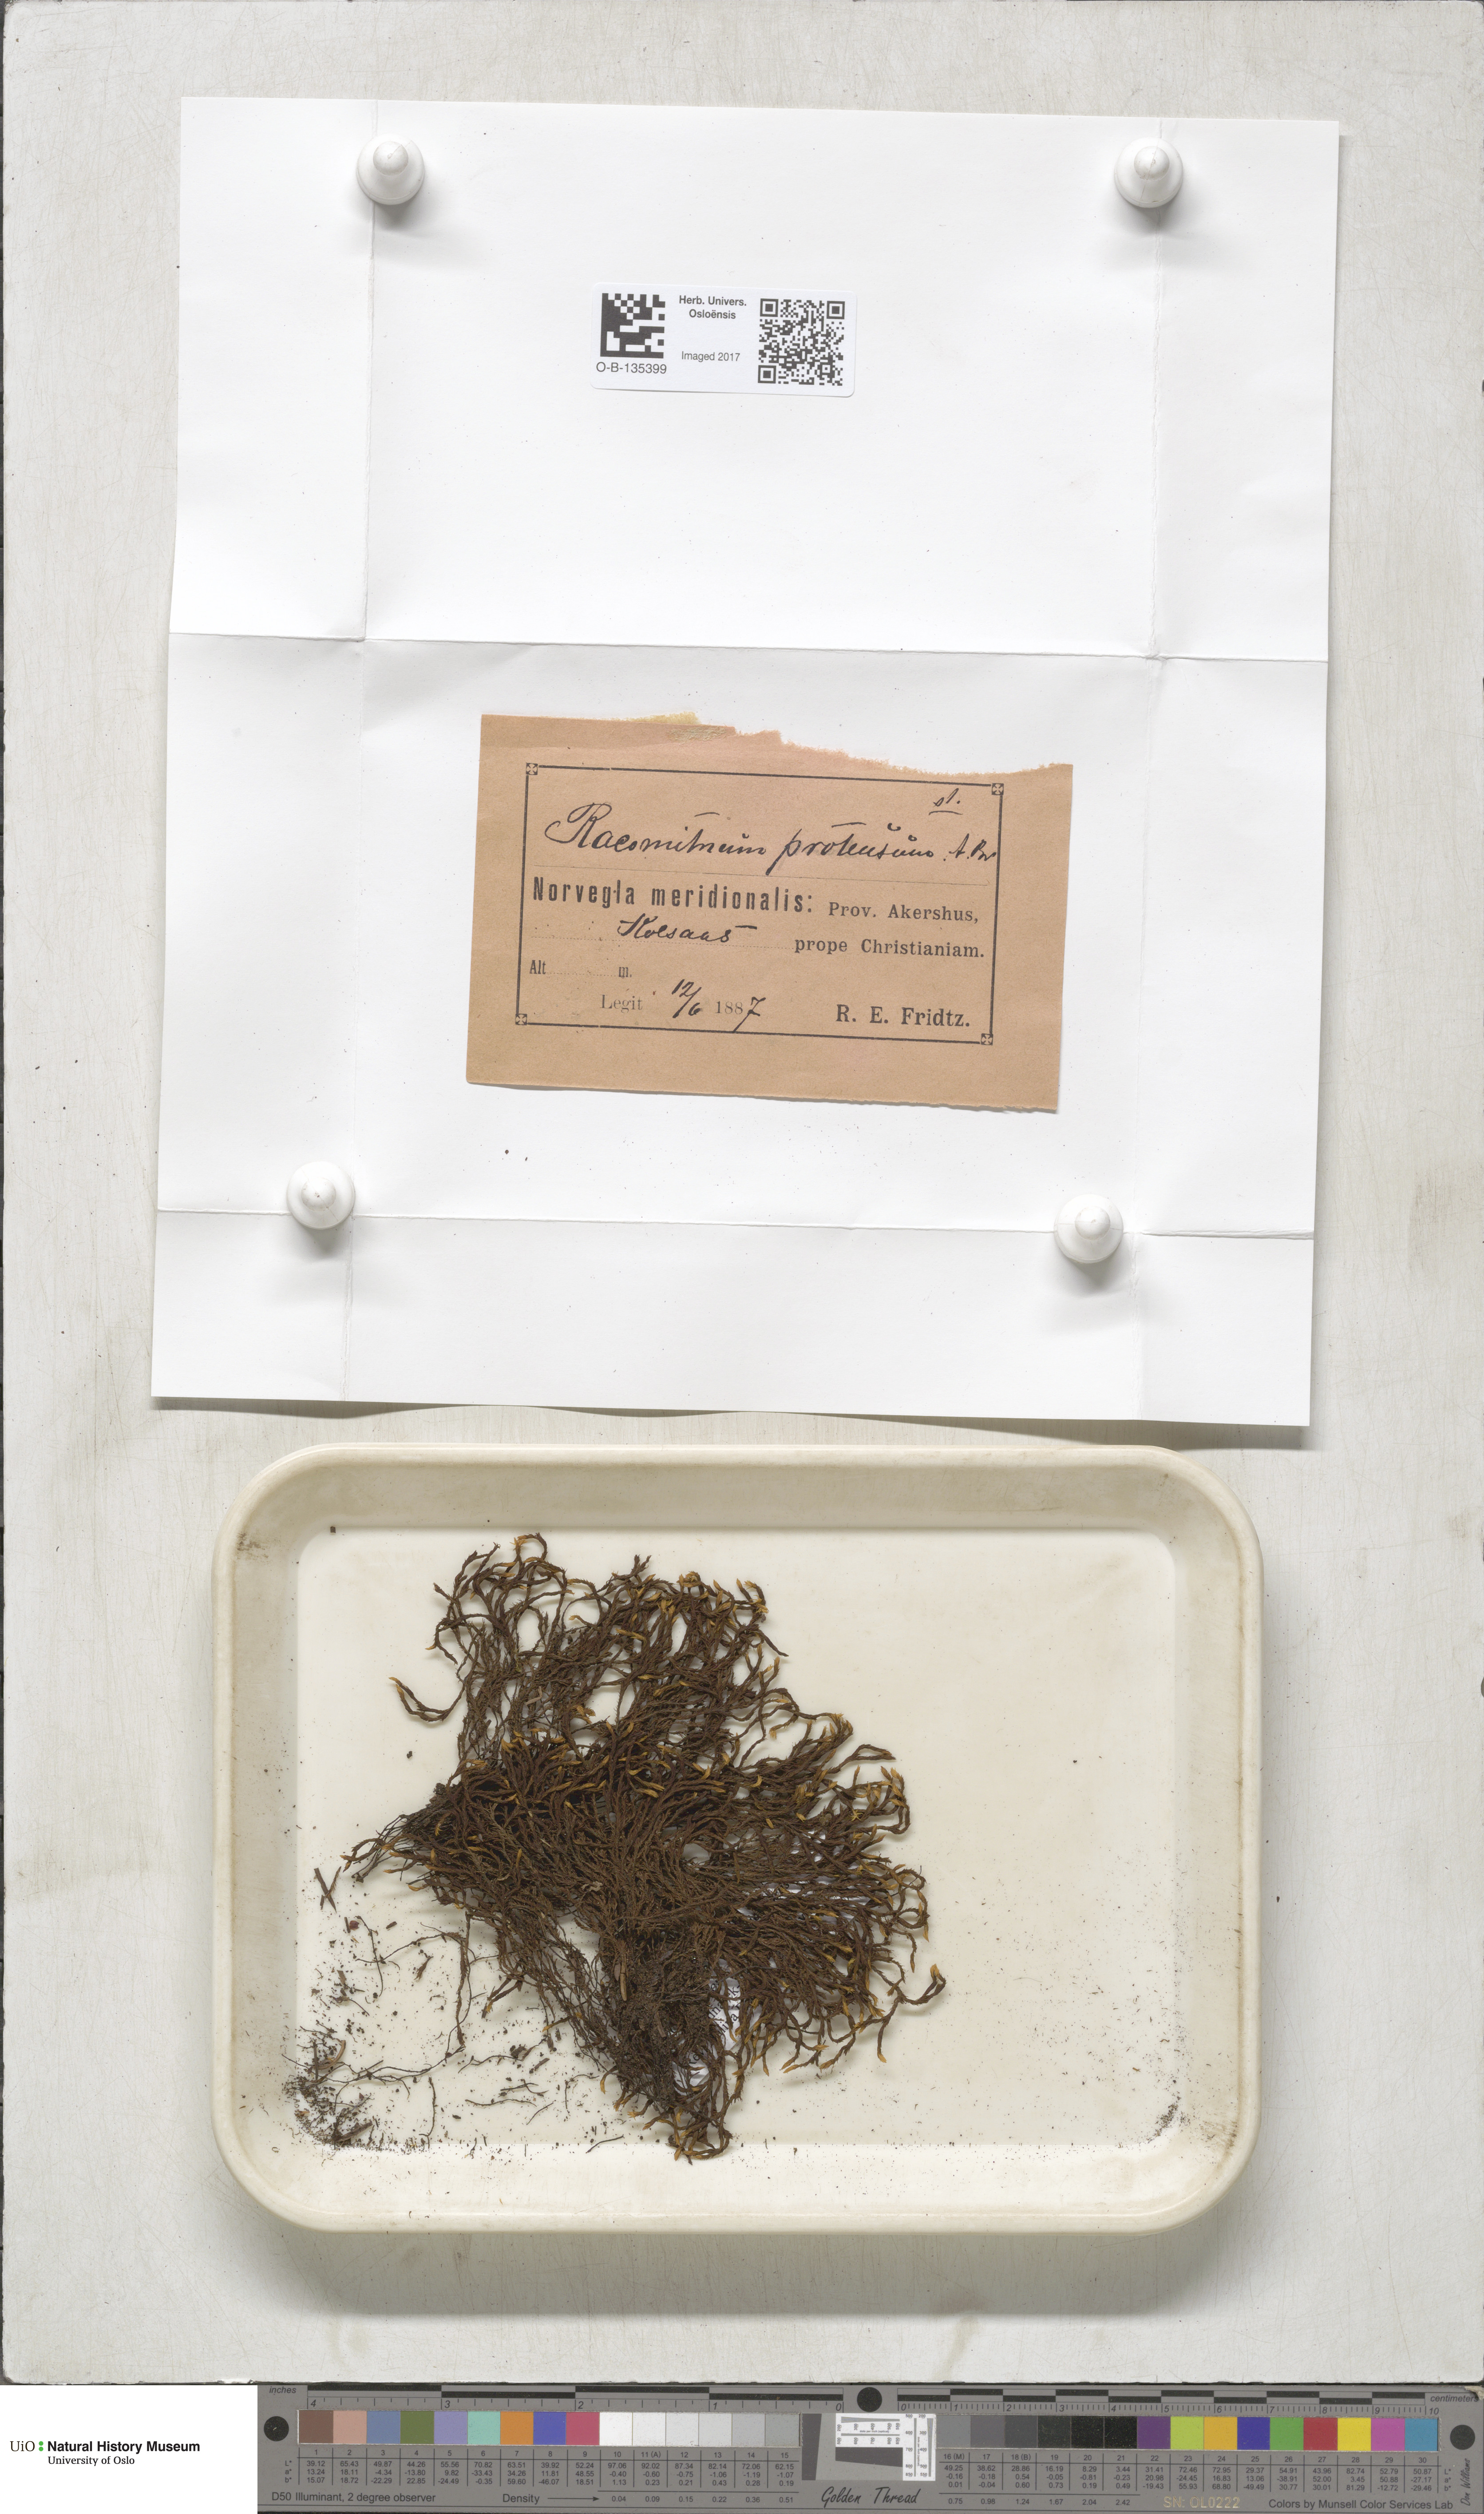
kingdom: Plantae
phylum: Bryophyta
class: Bryopsida
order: Grimmiales
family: Grimmiaceae
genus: Codriophorus
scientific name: Codriophorus aquaticus
